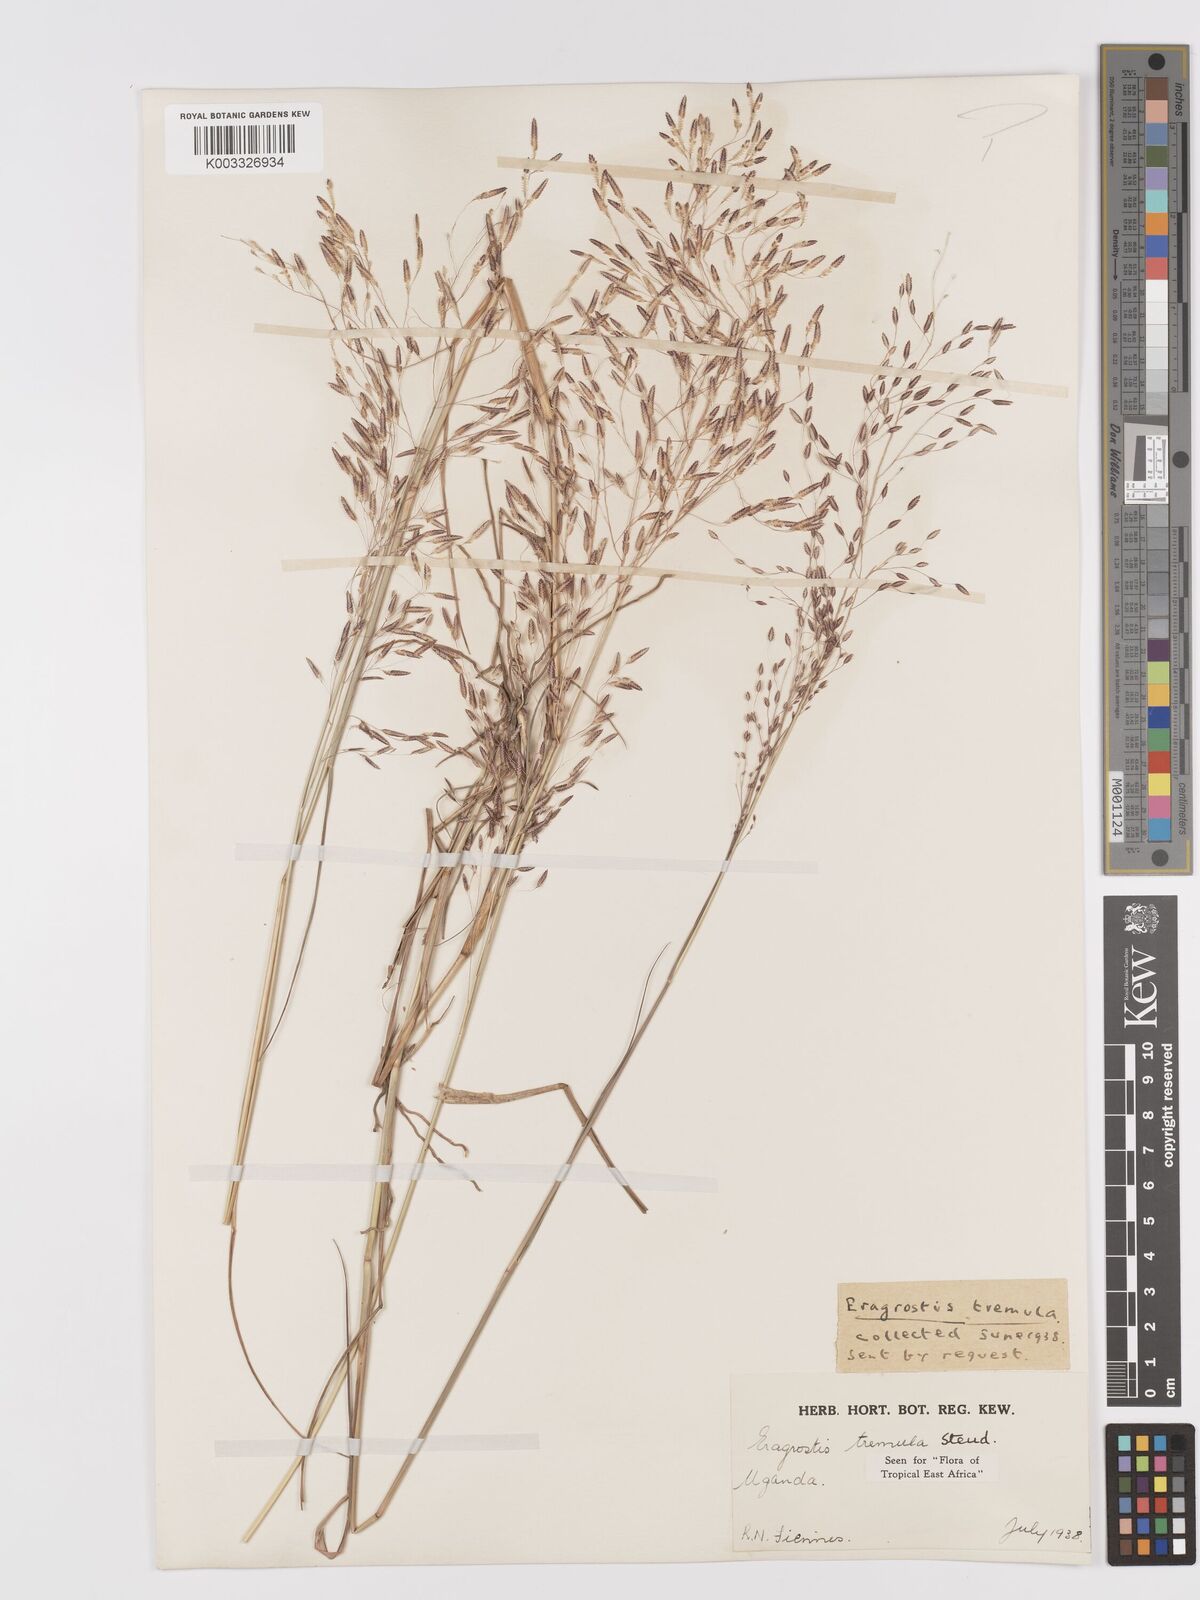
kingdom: Plantae
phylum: Tracheophyta
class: Liliopsida
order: Poales
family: Poaceae
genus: Eragrostis
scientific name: Eragrostis tremula
